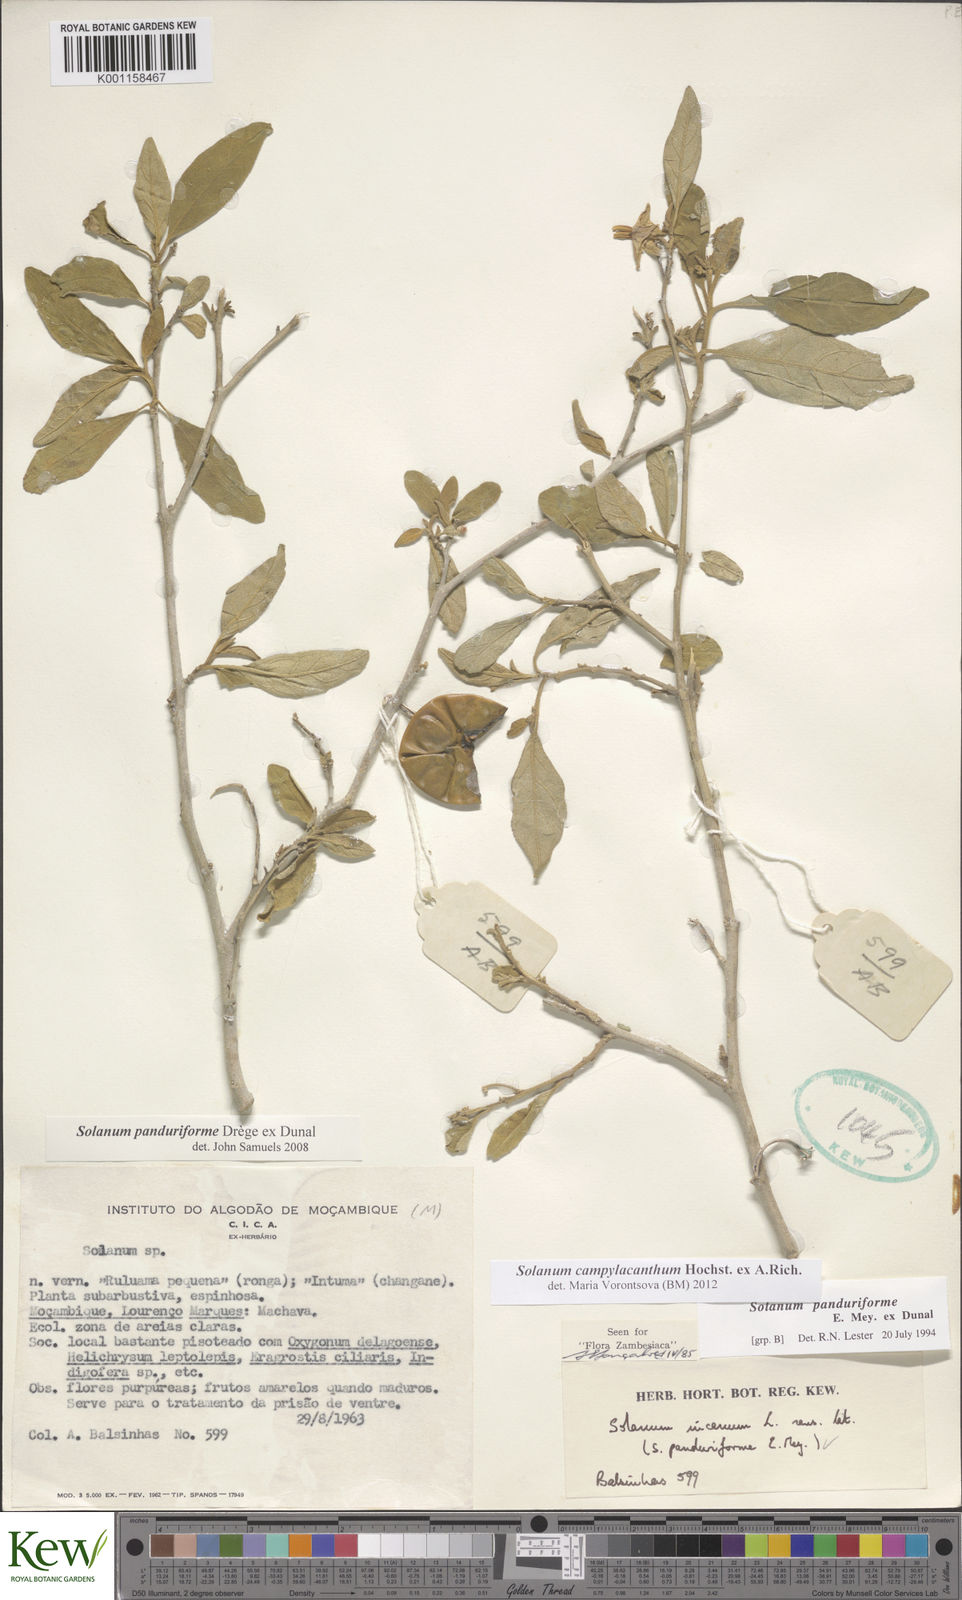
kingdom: Plantae
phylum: Tracheophyta
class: Magnoliopsida
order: Solanales
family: Solanaceae
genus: Solanum
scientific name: Solanum campylacanthum
